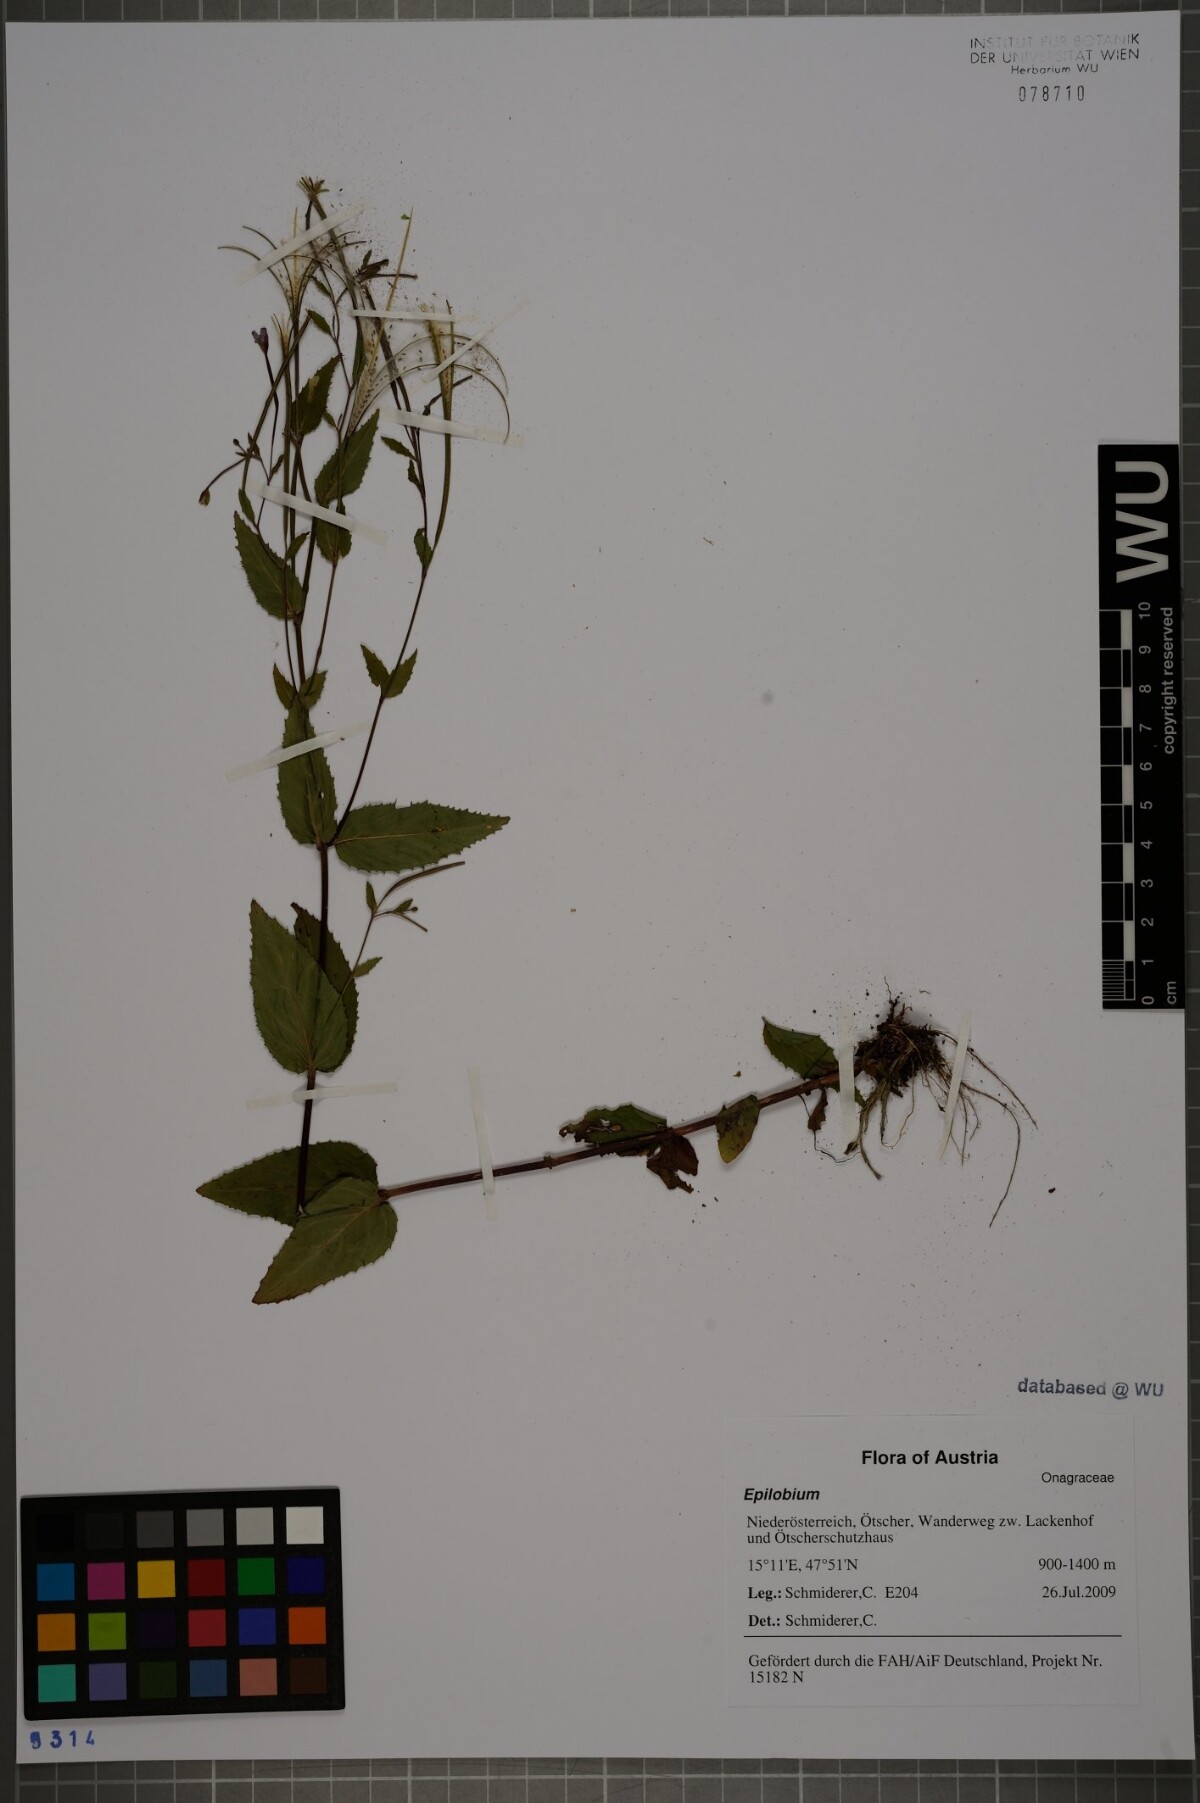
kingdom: Plantae
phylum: Tracheophyta
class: Magnoliopsida
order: Myrtales
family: Onagraceae
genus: Epilobium
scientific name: Epilobium montanum
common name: Broad-leaved willowherb
